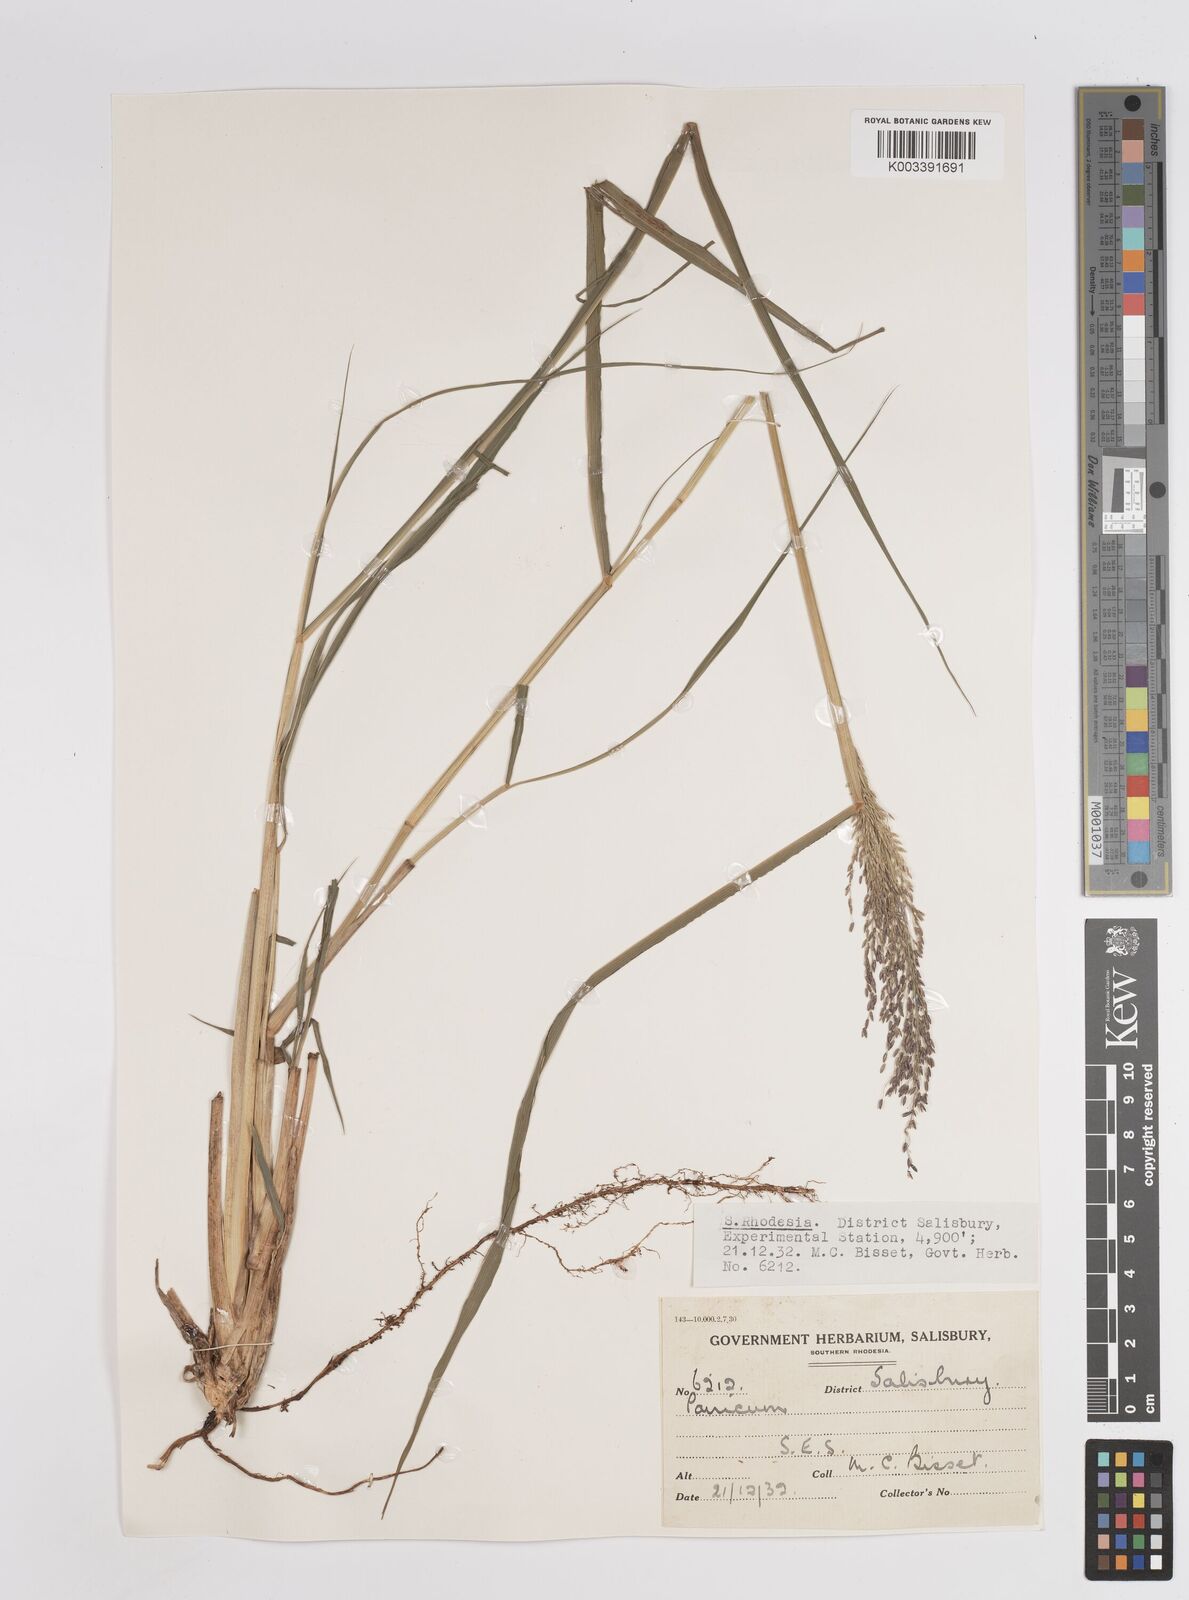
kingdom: Plantae
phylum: Tracheophyta
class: Liliopsida
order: Poales
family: Poaceae
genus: Megathyrsus
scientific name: Megathyrsus maximus
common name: Guineagrass
